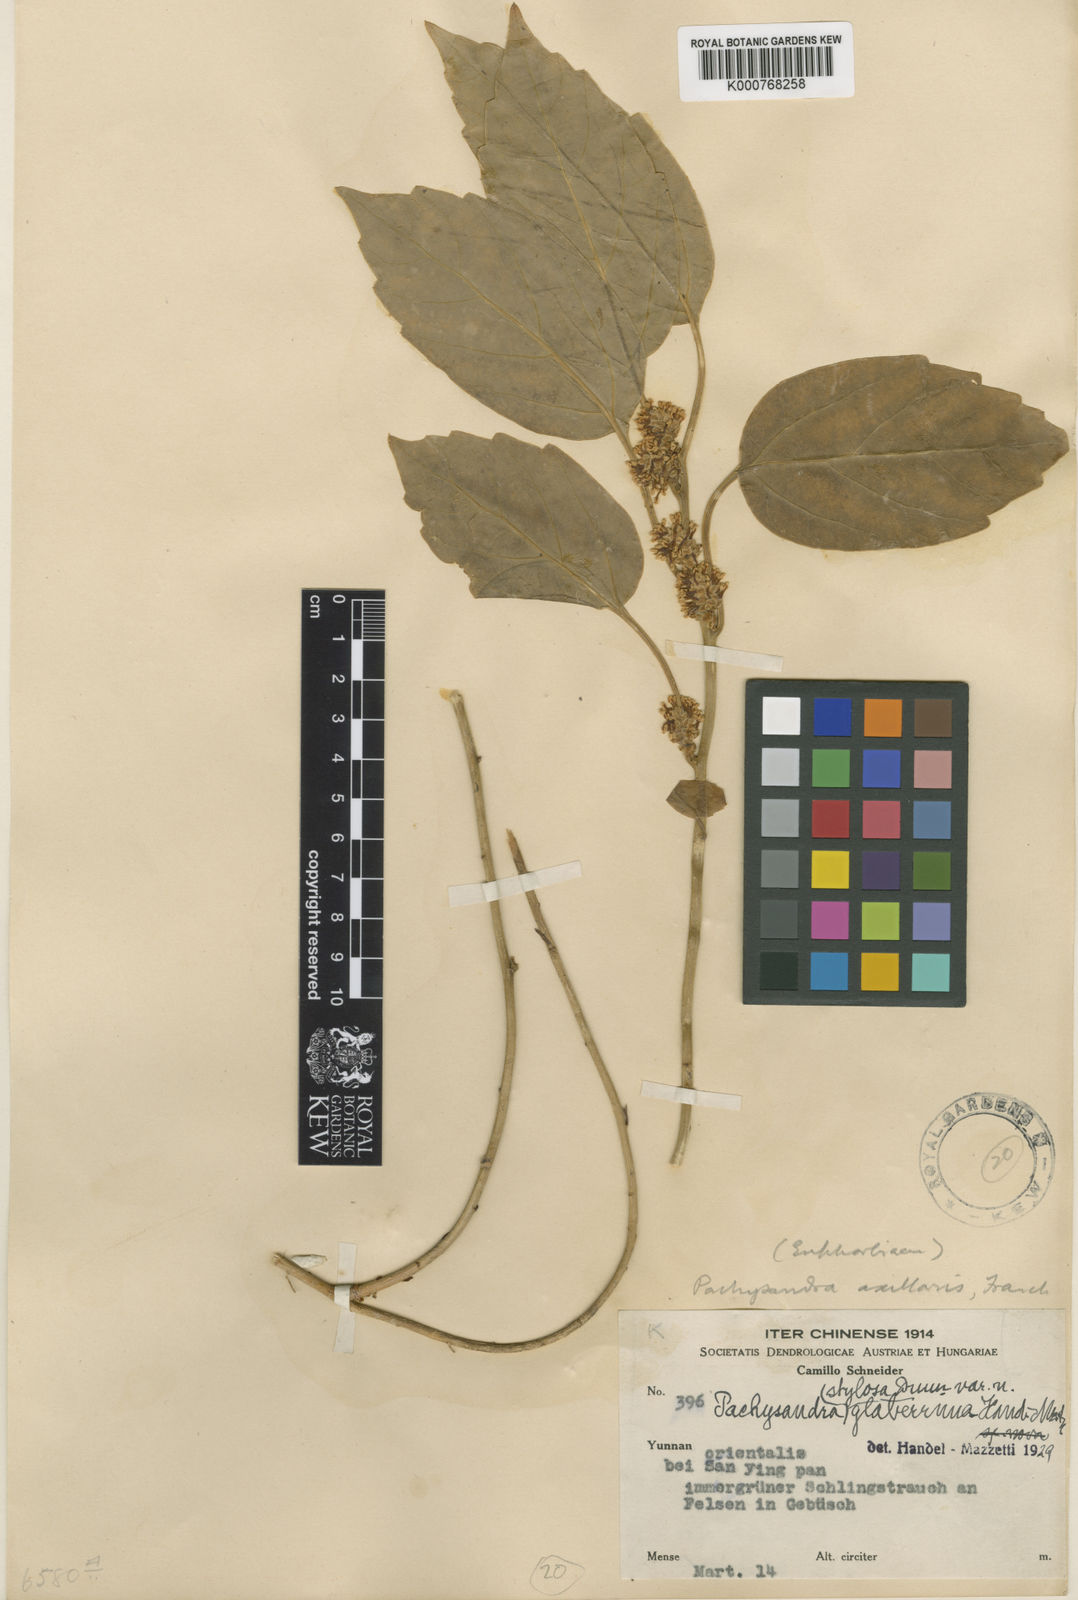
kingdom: Plantae
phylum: Tracheophyta
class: Magnoliopsida
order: Buxales
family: Buxaceae
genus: Pachysandra
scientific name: Pachysandra axillaris
